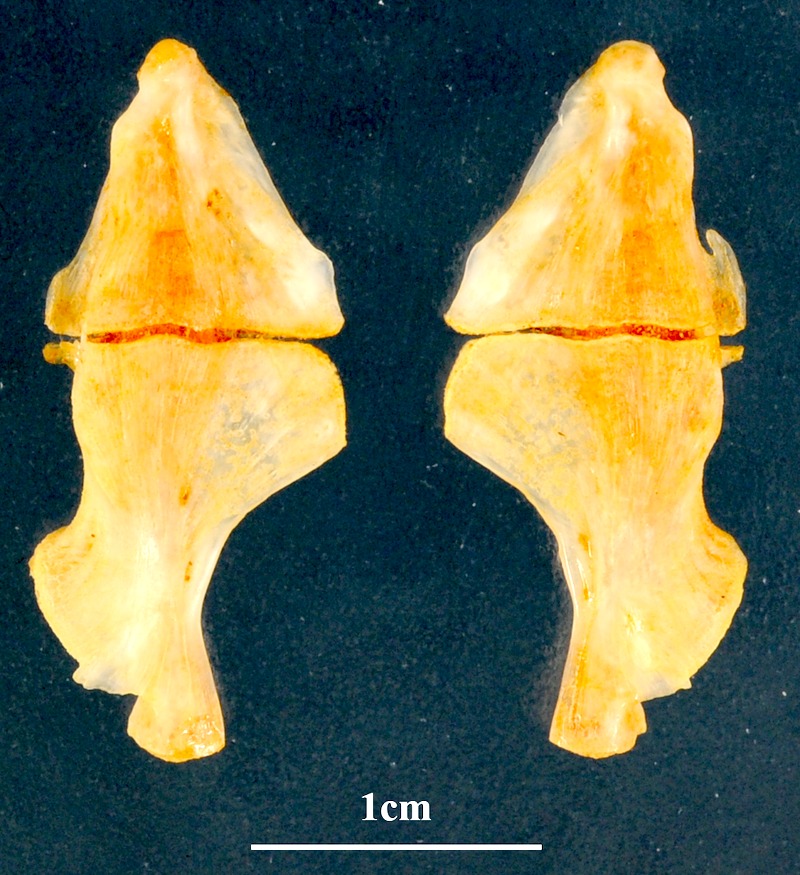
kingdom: Animalia
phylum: Chordata
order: Perciformes
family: Sparidae
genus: Pagrus
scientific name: Pagrus pagrus
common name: Red porgy
